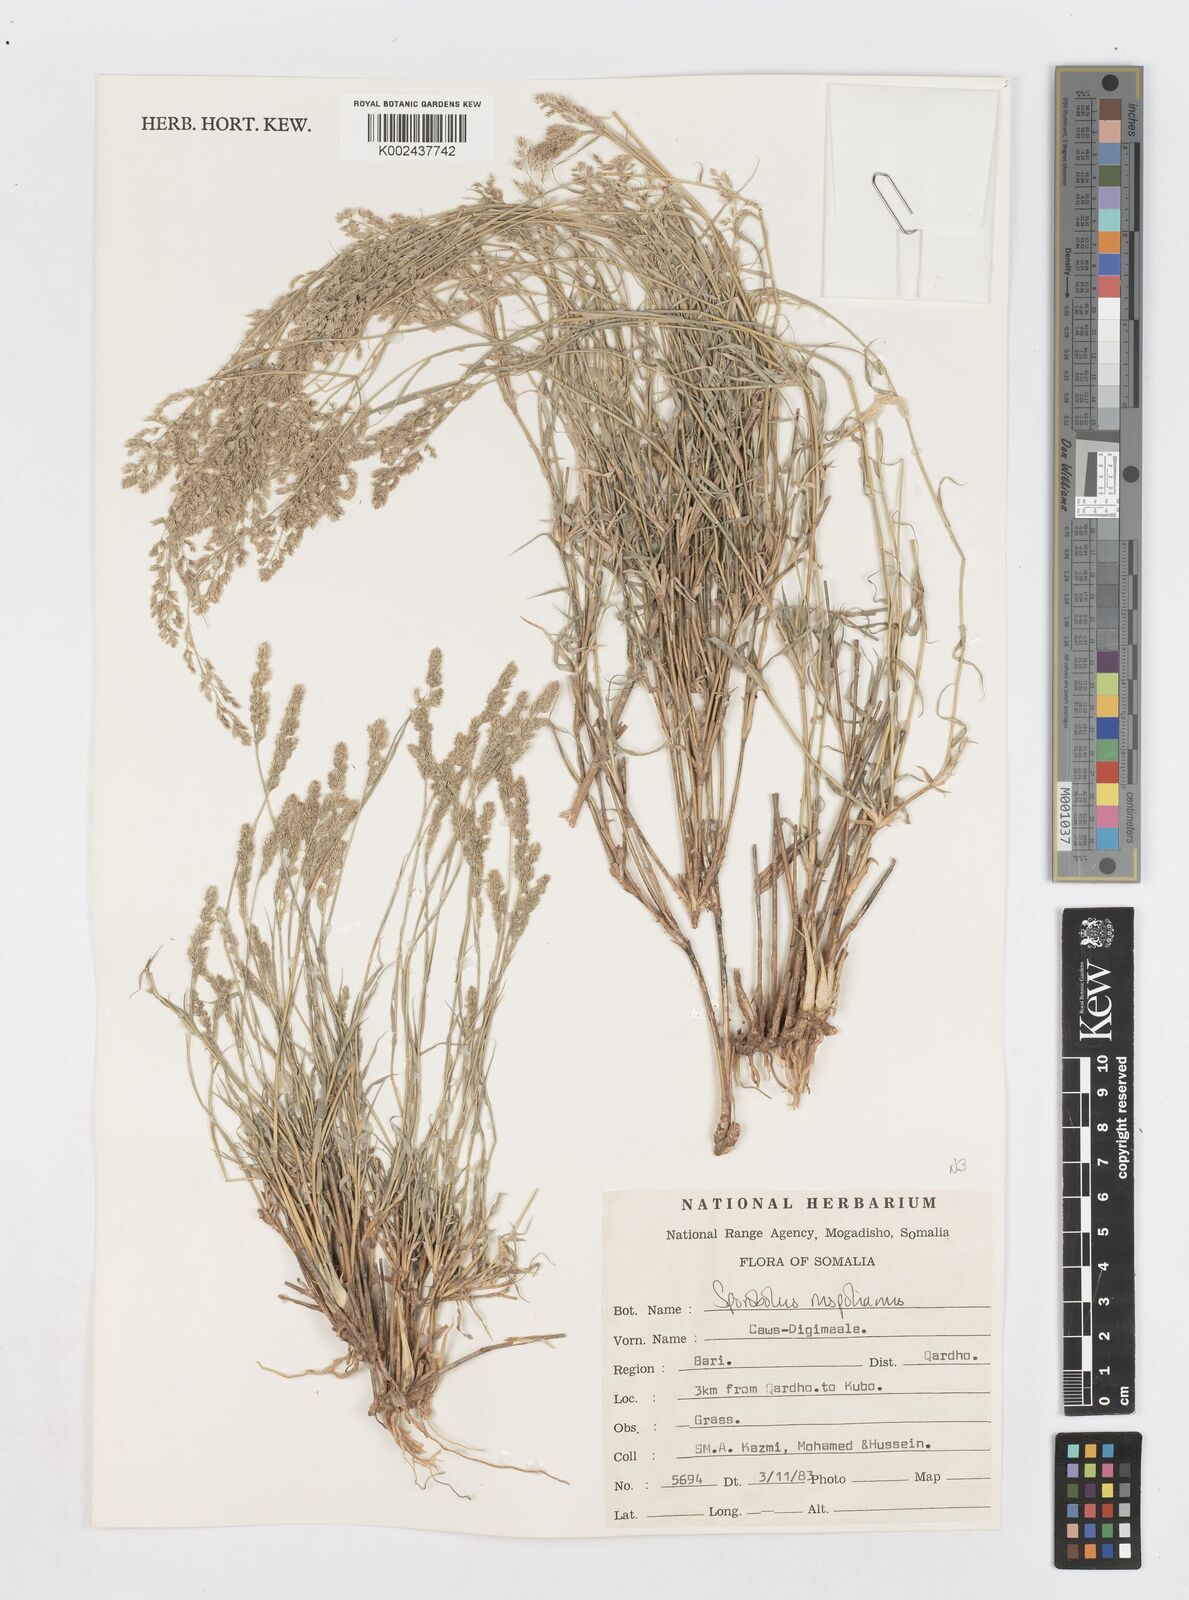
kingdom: Plantae
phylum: Tracheophyta
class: Liliopsida
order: Poales
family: Poaceae
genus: Sporobolus
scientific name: Sporobolus ruspolianus
